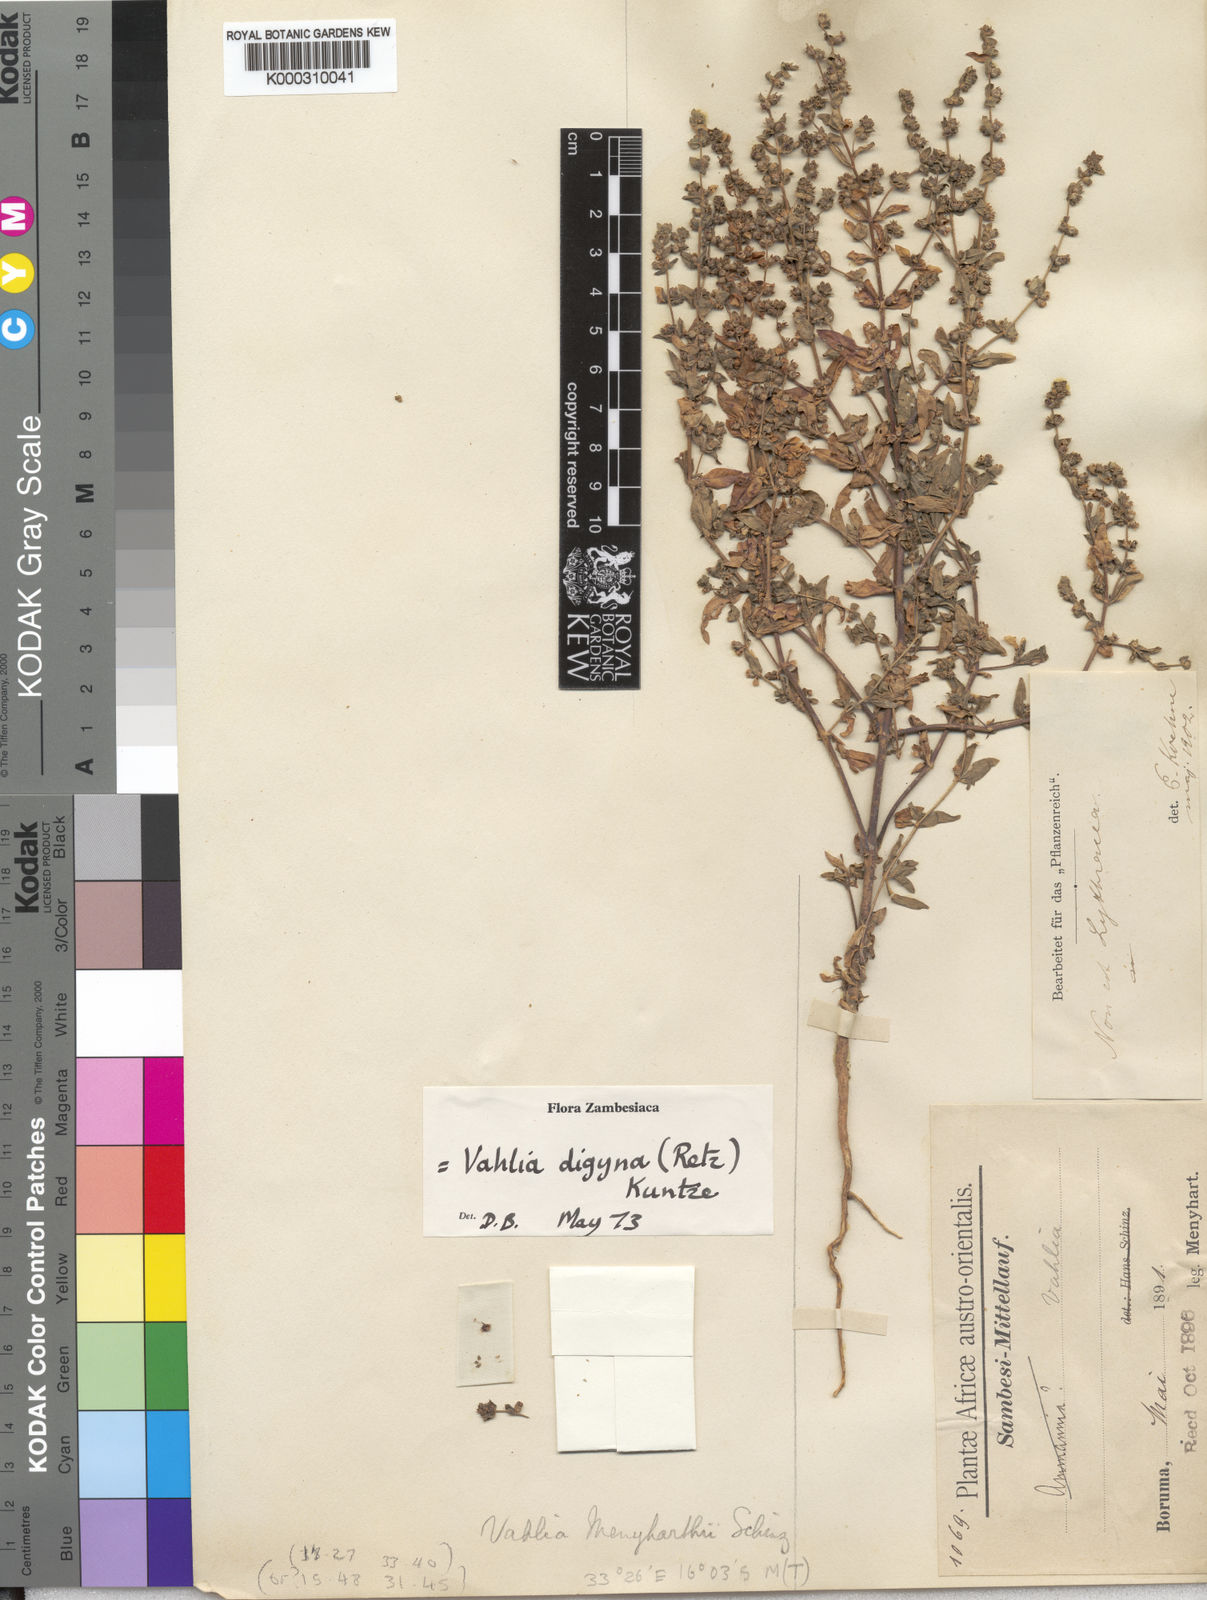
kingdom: Plantae
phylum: Tracheophyta
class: Magnoliopsida
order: Vahliales
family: Vahliaceae
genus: Vahlia
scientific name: Vahlia digyna
